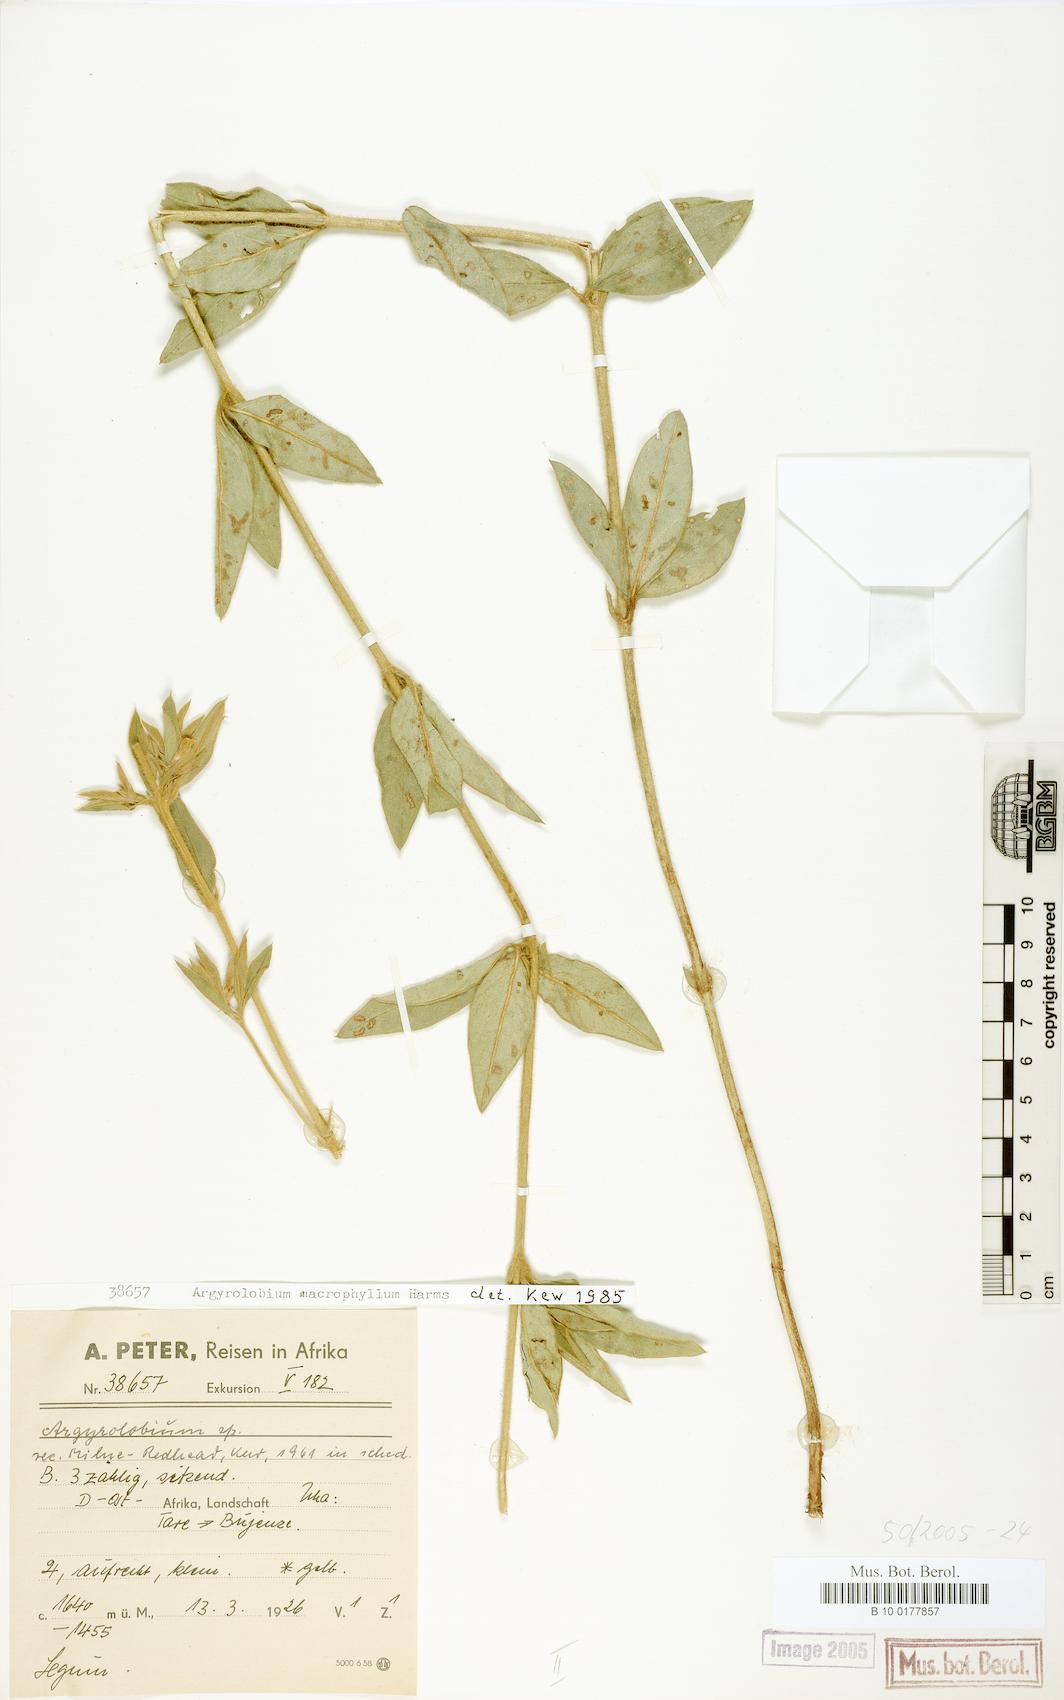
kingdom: Plantae
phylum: Tracheophyta
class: Magnoliopsida
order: Fabales
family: Fabaceae
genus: Argyrolobium
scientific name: Argyrolobium macrophyllum
